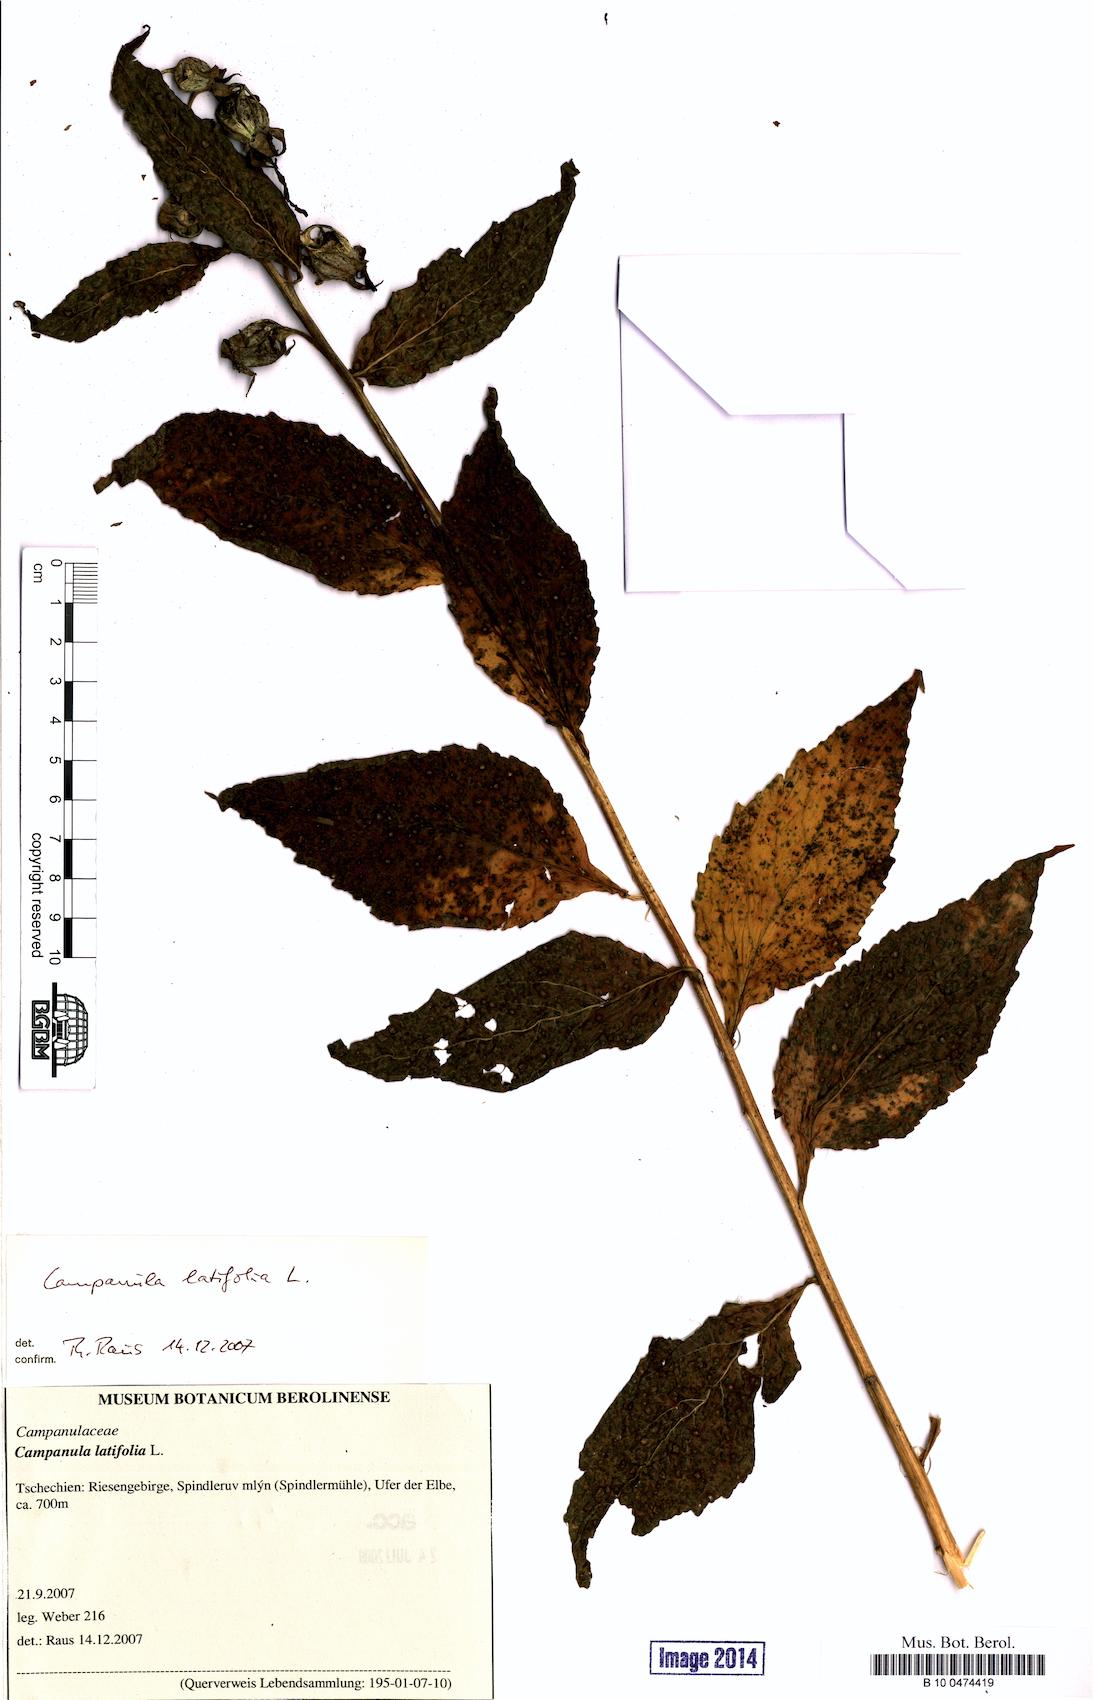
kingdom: Plantae
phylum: Tracheophyta
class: Magnoliopsida
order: Asterales
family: Campanulaceae
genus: Campanula
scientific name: Campanula latifolia
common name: Giant bellflower
